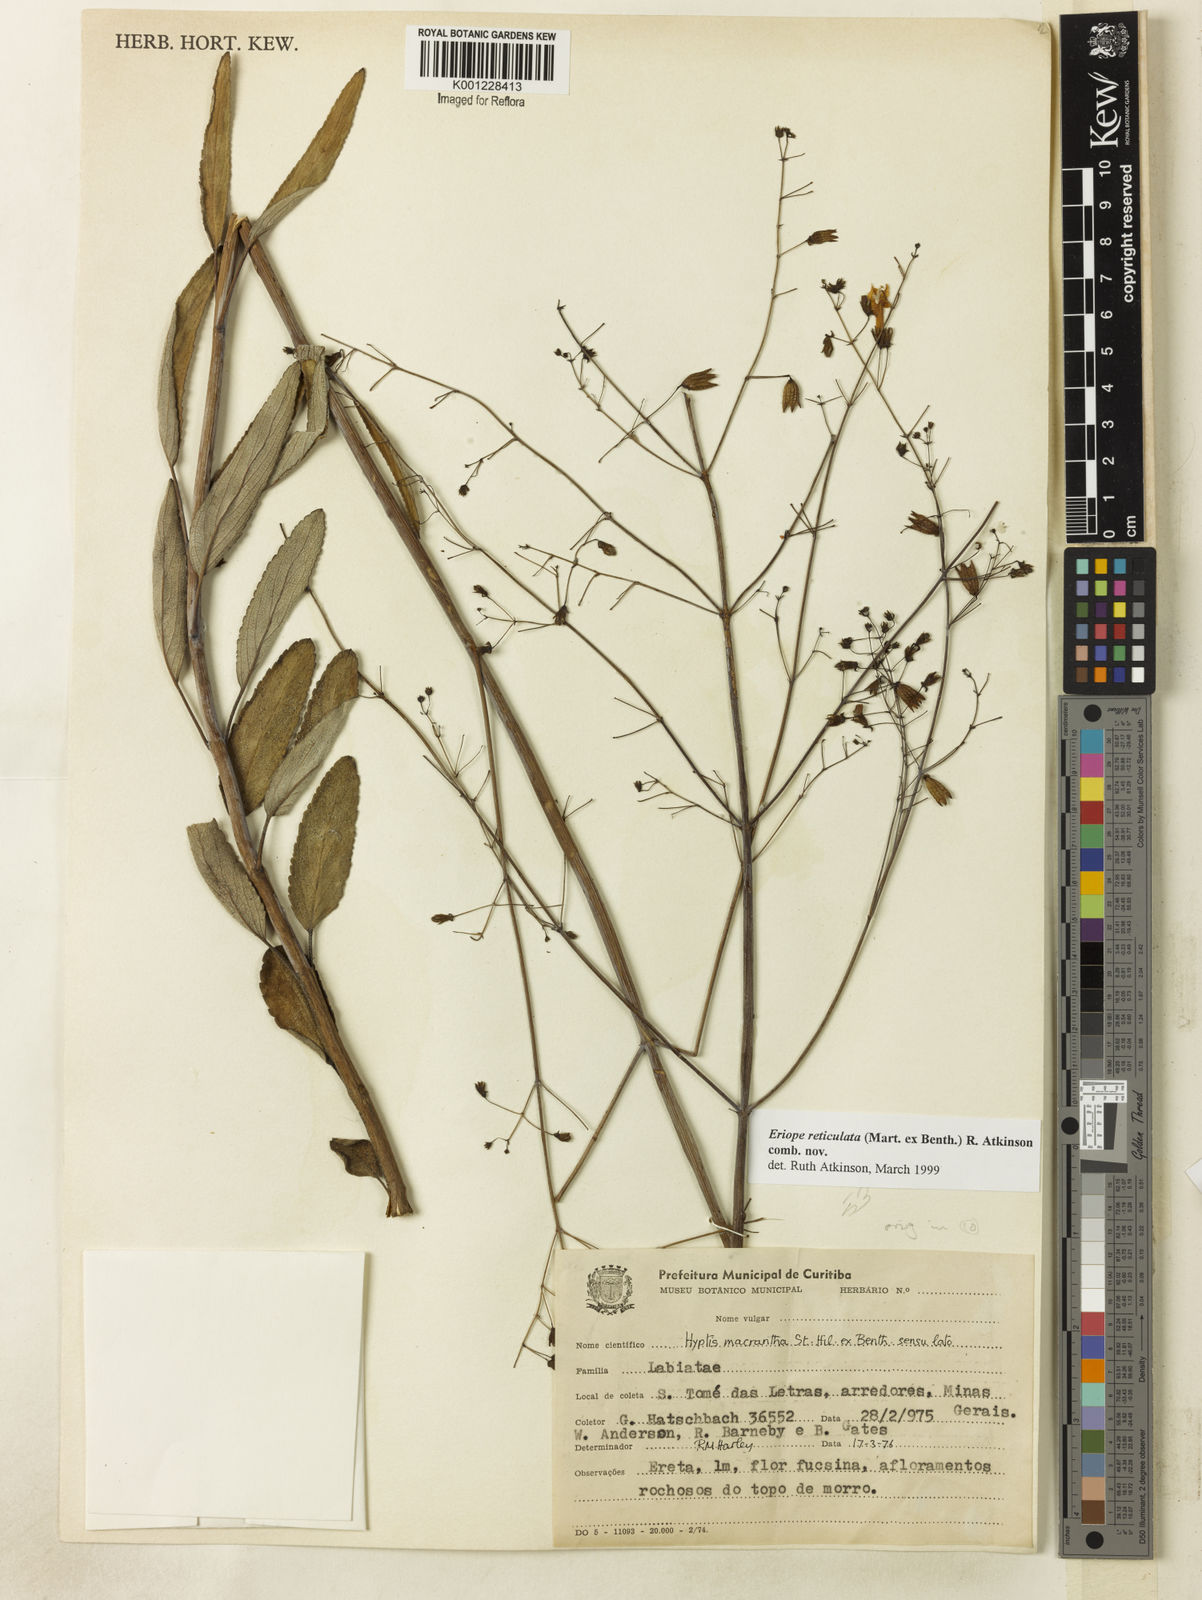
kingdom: Plantae
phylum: Tracheophyta
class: Magnoliopsida
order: Lamiales
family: Lamiaceae
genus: Hypenia
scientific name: Hypenia reticulata
